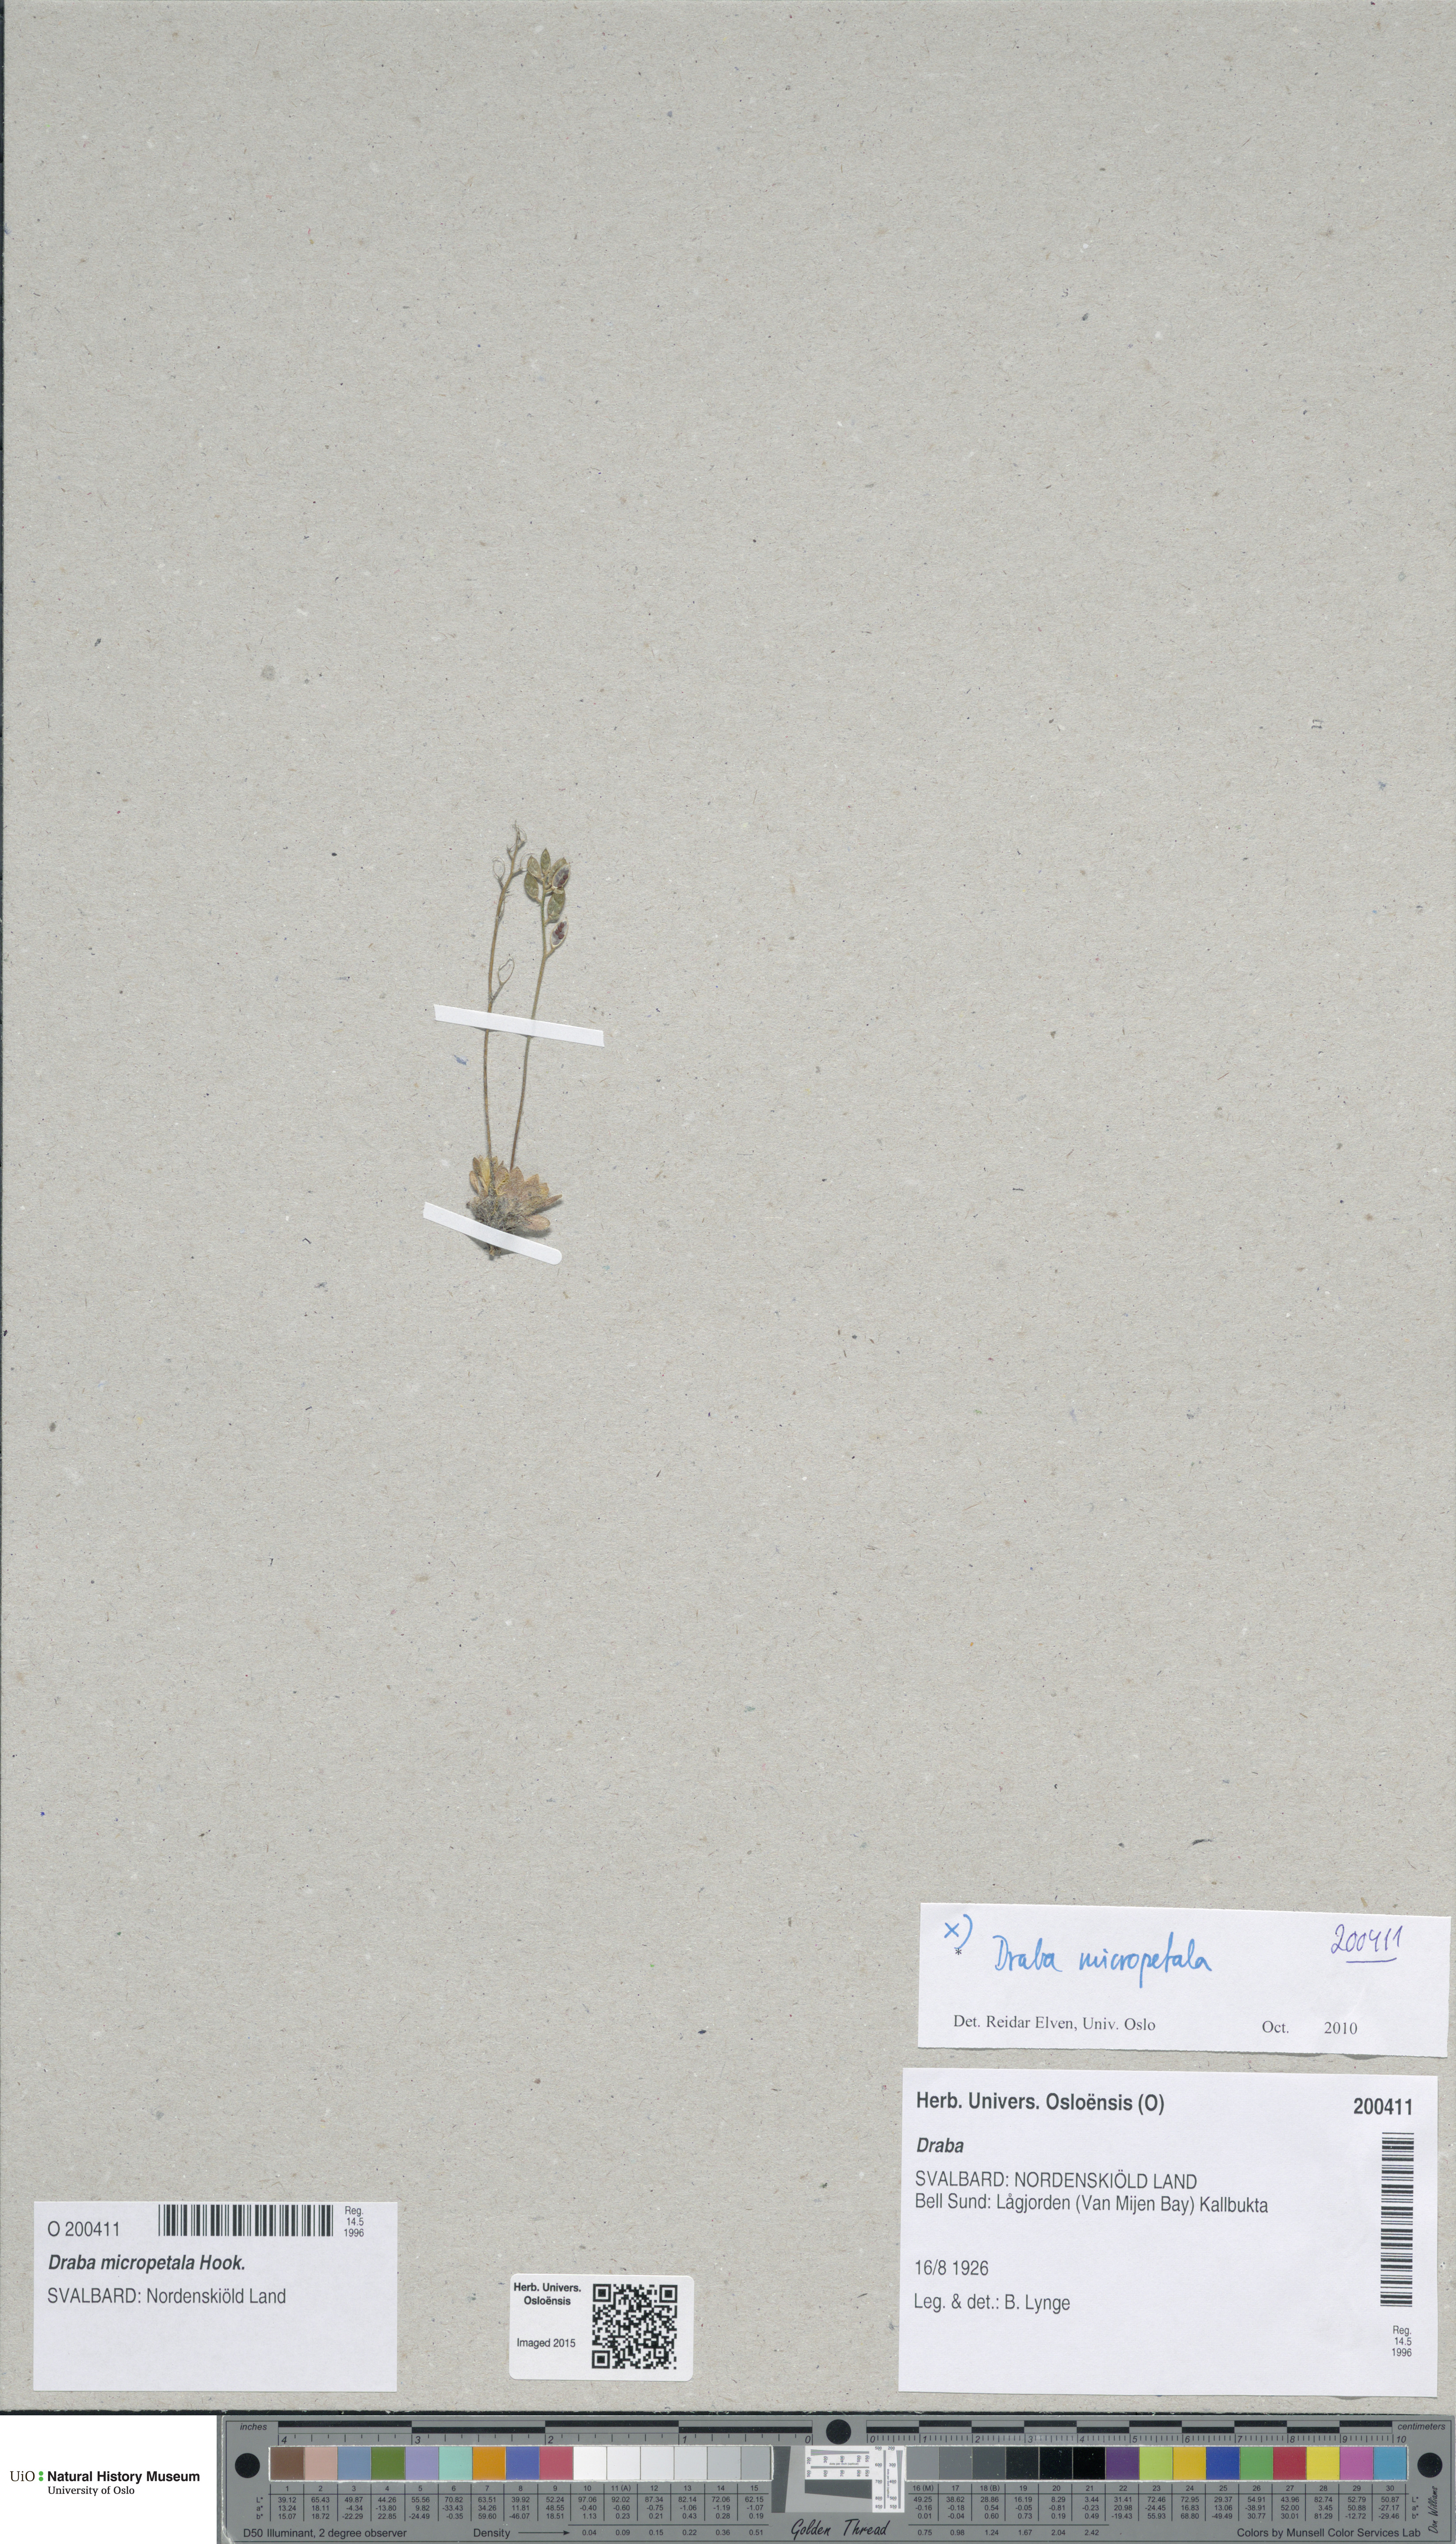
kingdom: Plantae
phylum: Tracheophyta
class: Magnoliopsida
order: Brassicales
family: Brassicaceae
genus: Draba
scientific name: Draba micropetala
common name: Small-flowered draba
